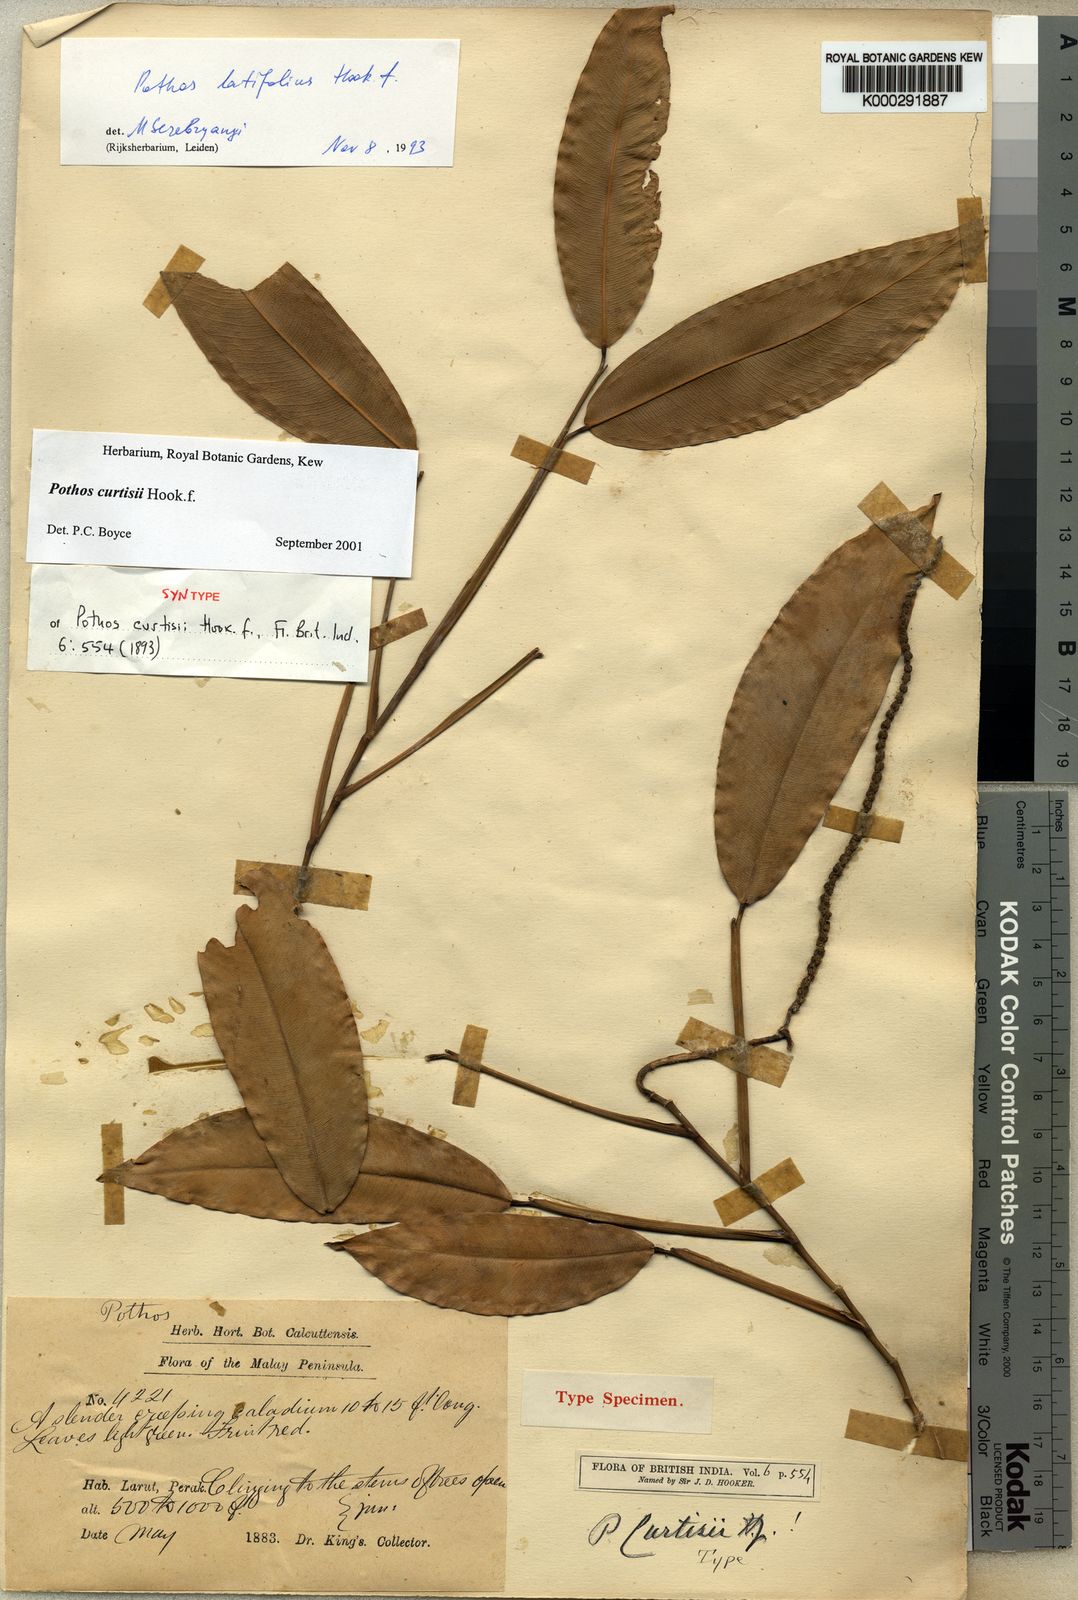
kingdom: Plantae
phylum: Tracheophyta
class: Liliopsida
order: Alismatales
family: Araceae
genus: Pothos
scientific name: Pothos curtisii
